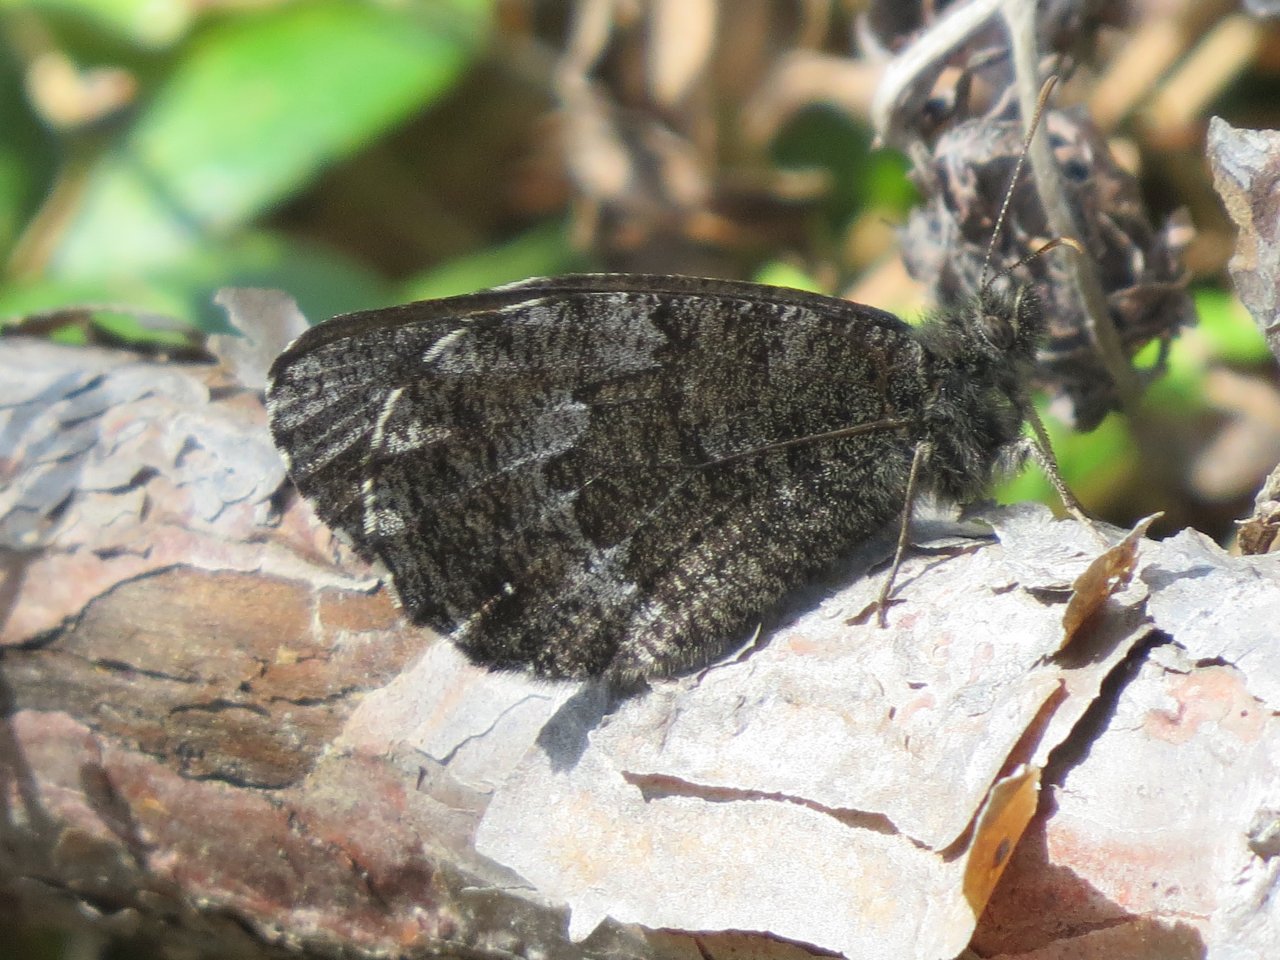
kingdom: Animalia
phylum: Arthropoda
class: Insecta
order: Lepidoptera
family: Nymphalidae
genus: Oeneis
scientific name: Oeneis jutta
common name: Jutta Arctic
